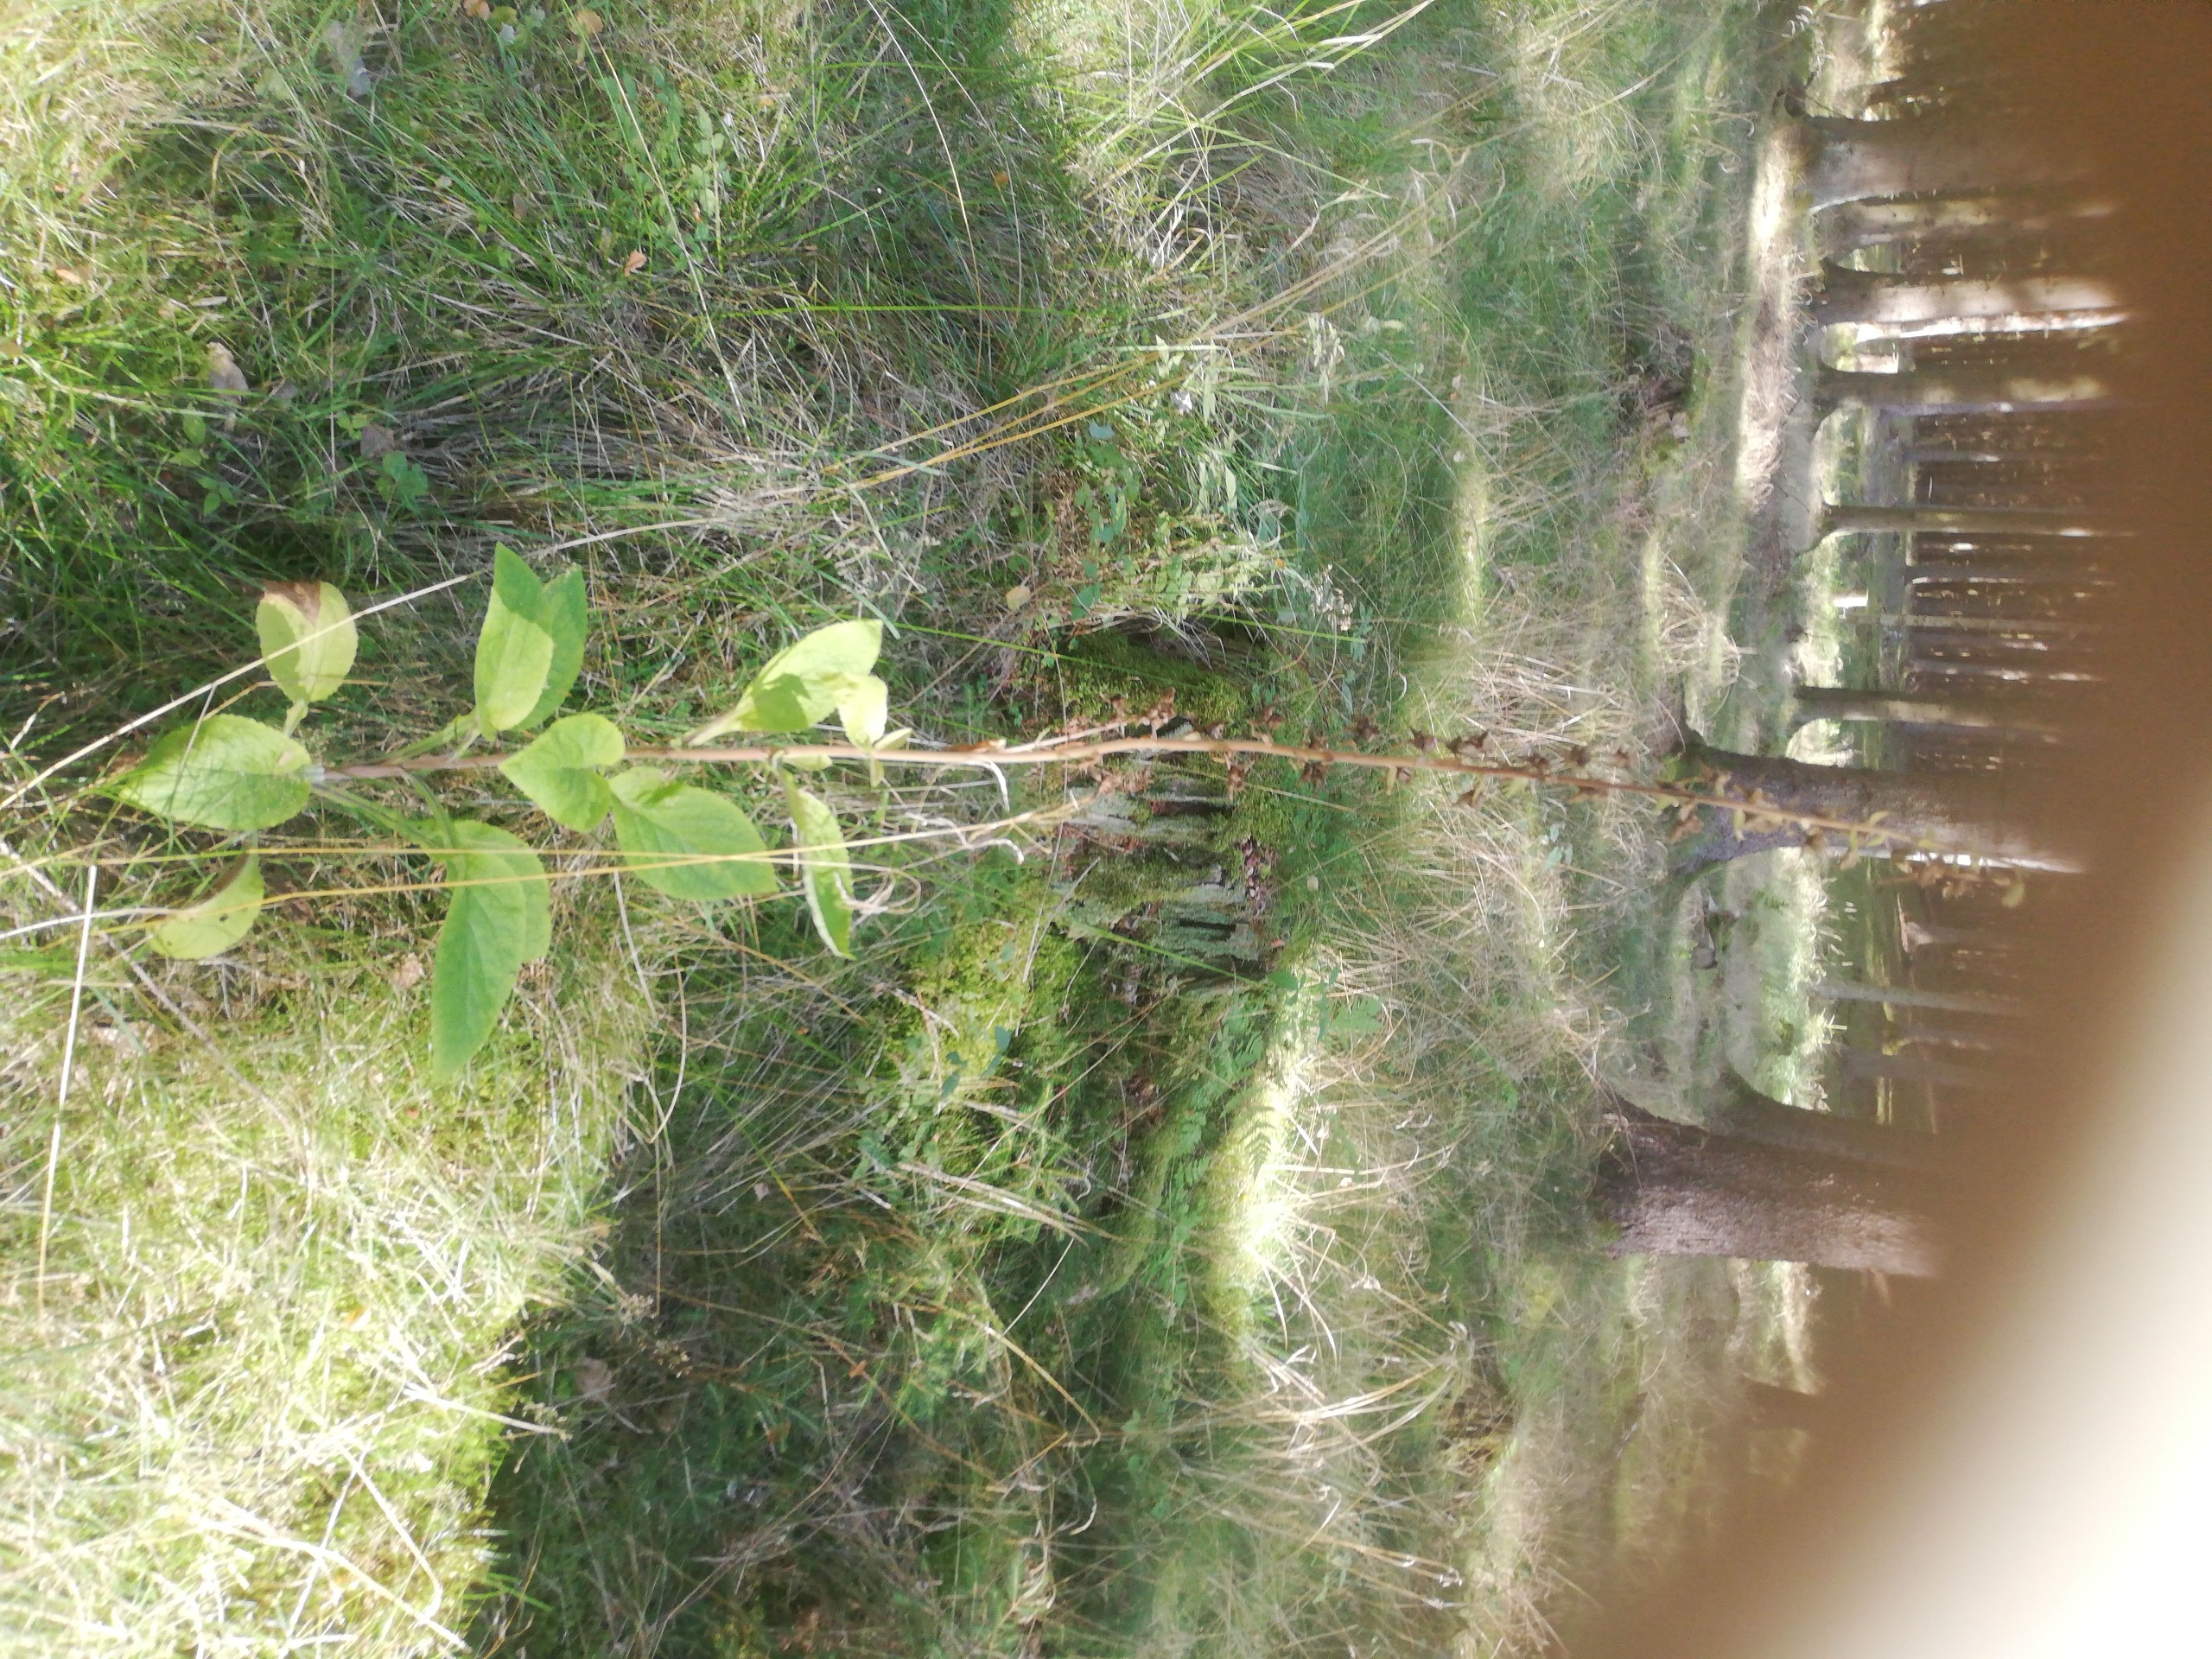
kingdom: Plantae
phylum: Tracheophyta
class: Magnoliopsida
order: Lamiales
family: Plantaginaceae
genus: Digitalis
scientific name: Digitalis purpurea
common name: Almindelig fingerbøl
